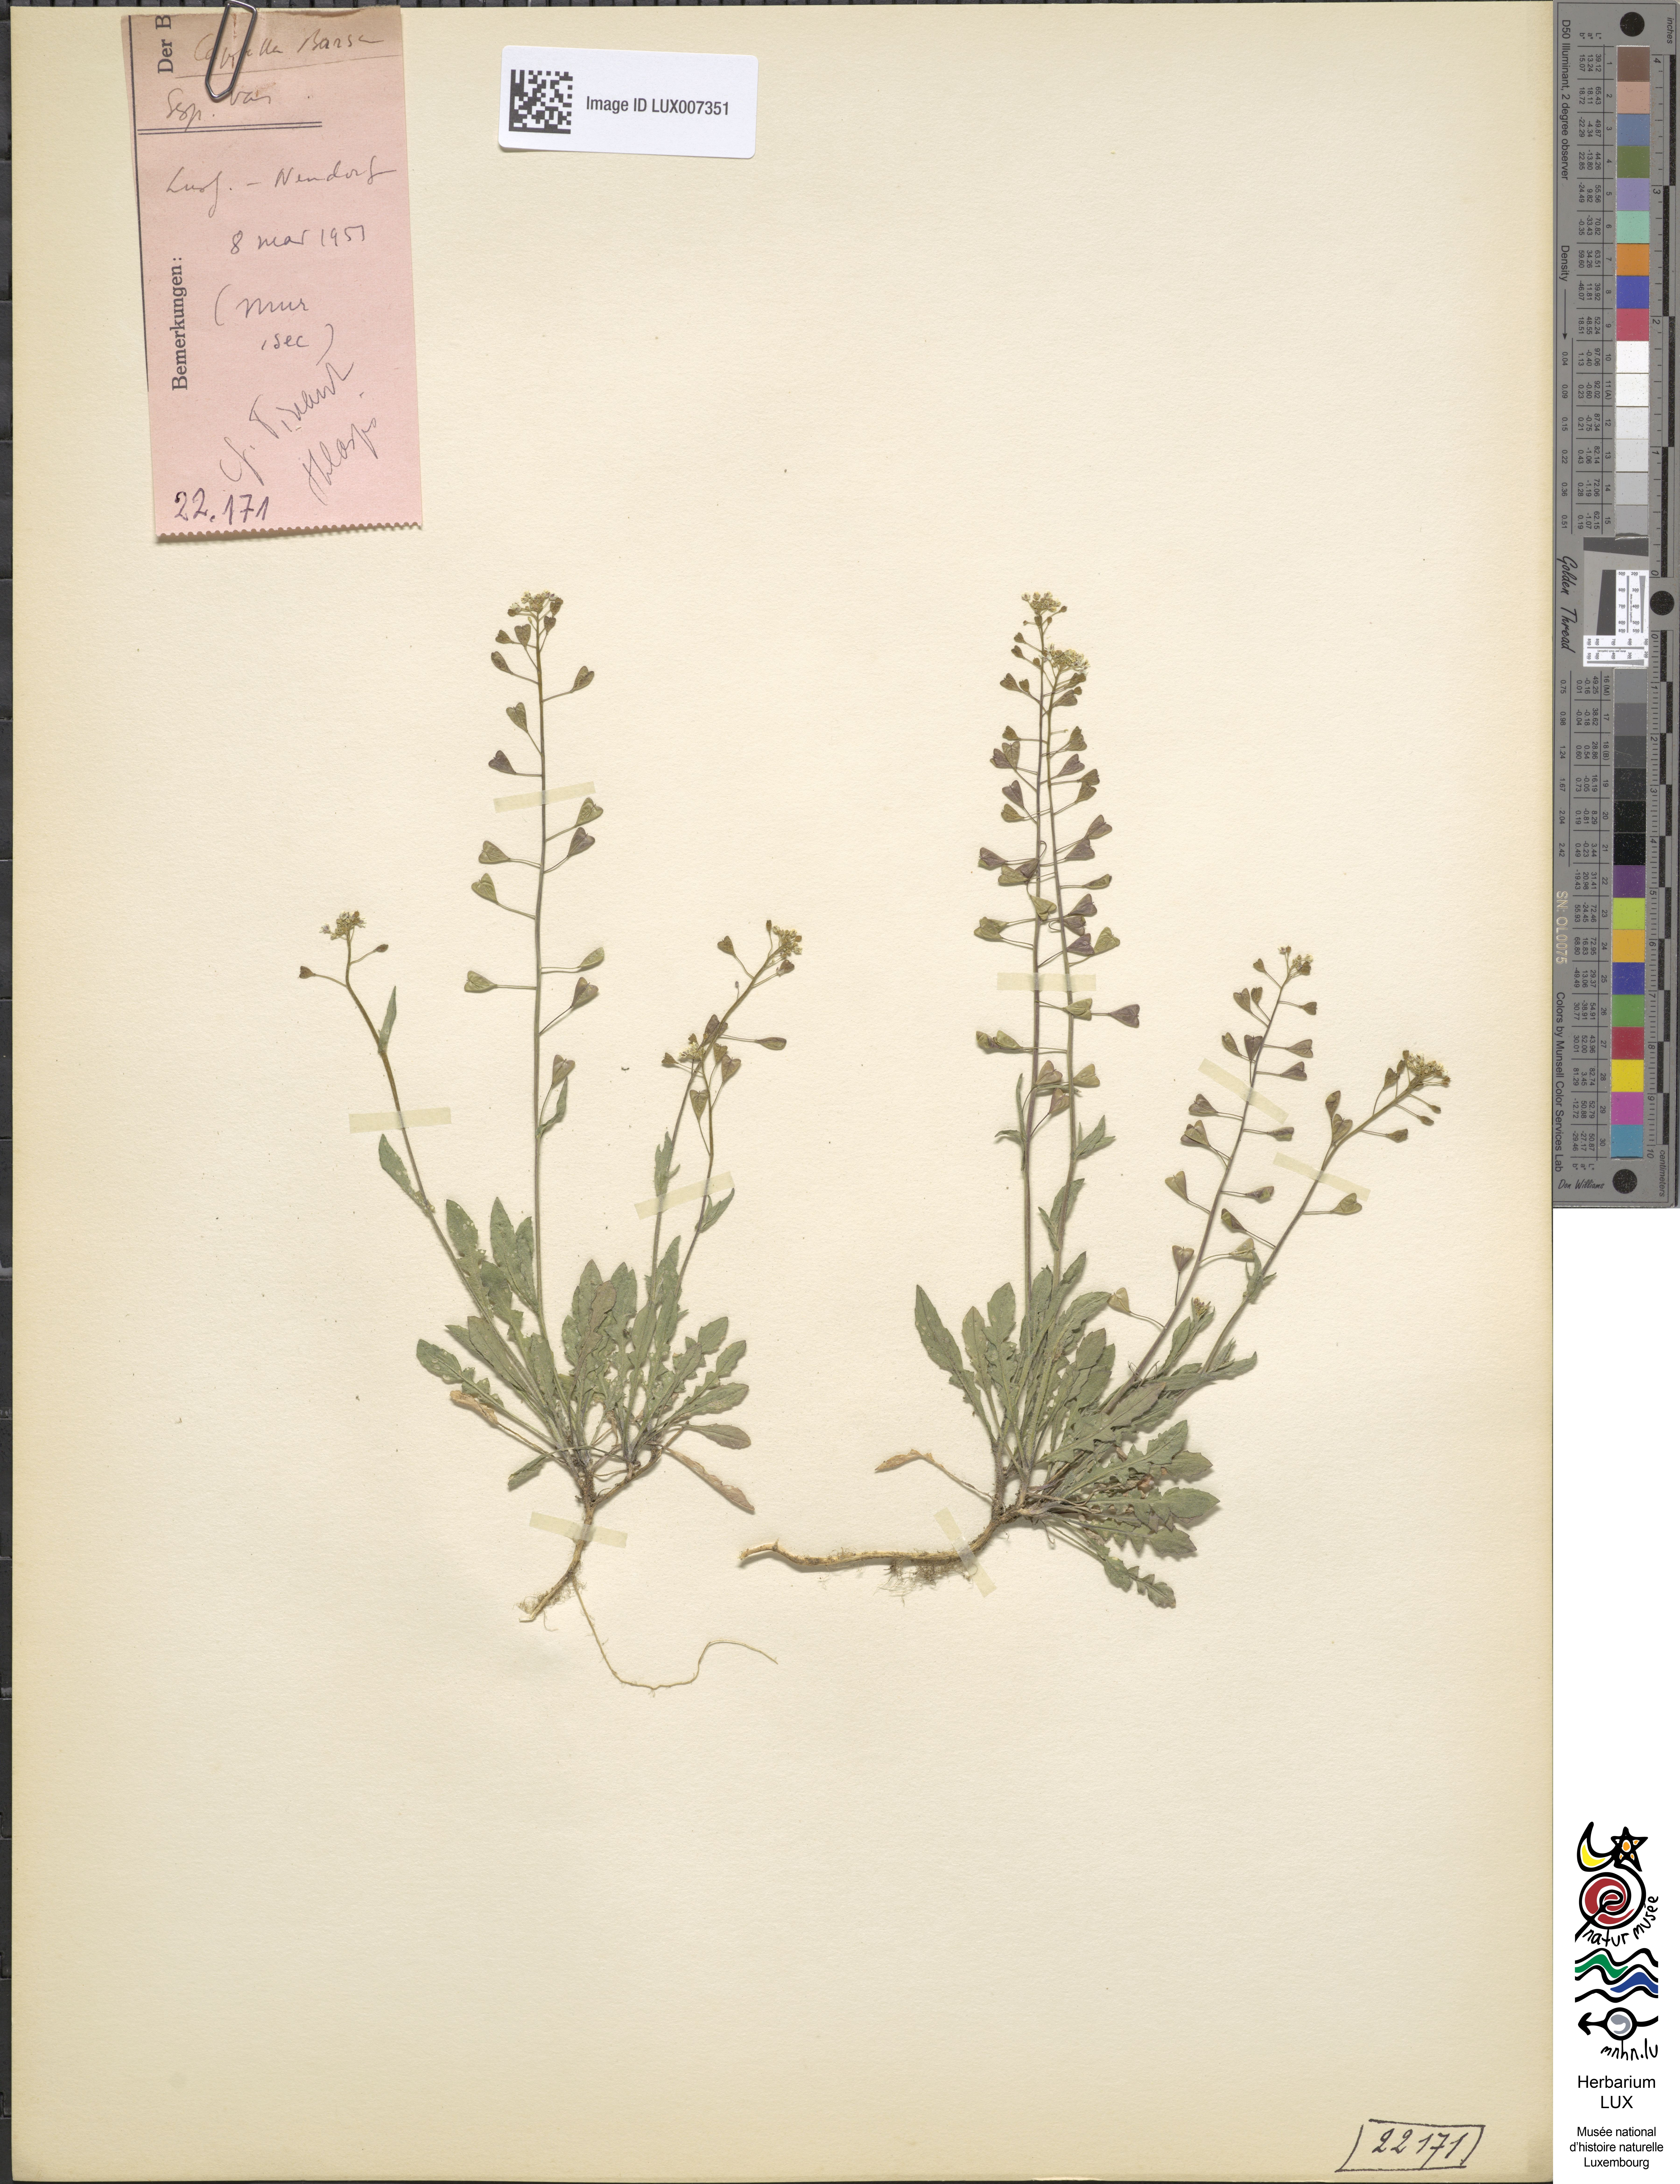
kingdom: Plantae
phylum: Tracheophyta
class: Magnoliopsida
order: Brassicales
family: Brassicaceae
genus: Capsella
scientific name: Capsella bursa-pastoris
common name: Shepherd's purse
